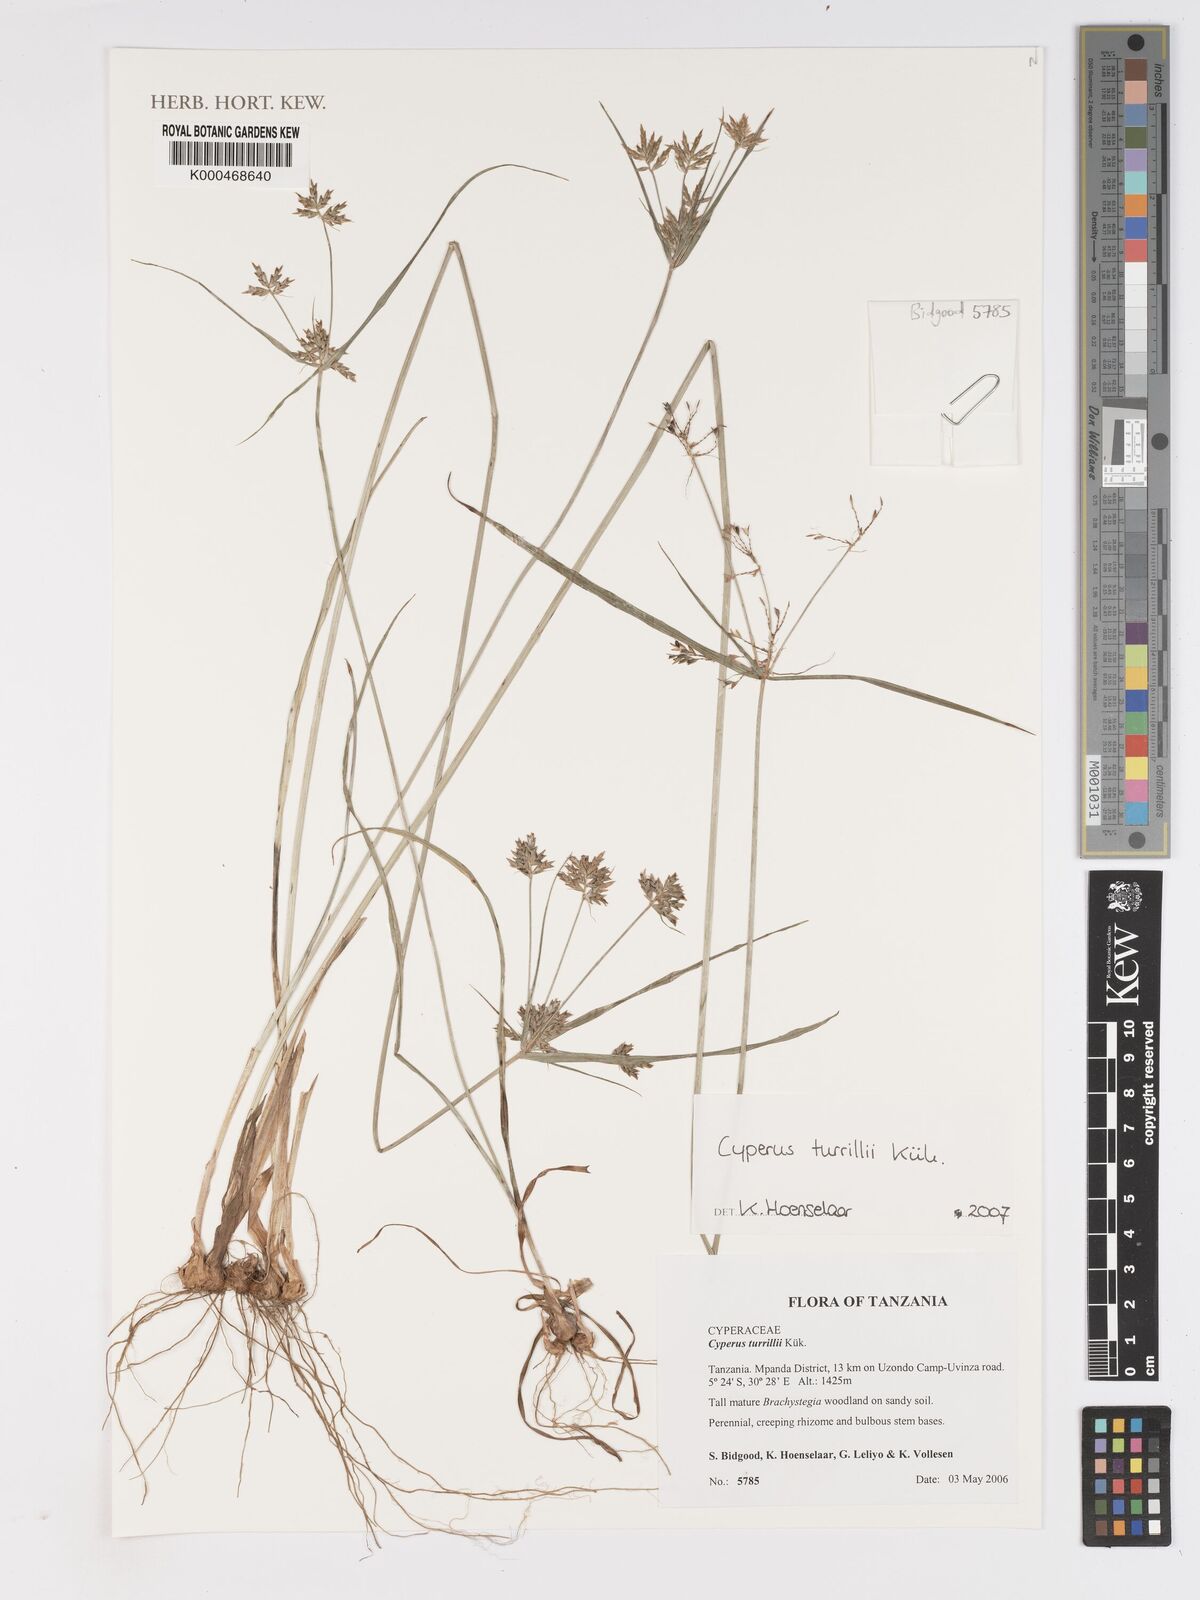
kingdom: Plantae
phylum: Tracheophyta
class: Liliopsida
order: Poales
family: Cyperaceae
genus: Cyperus
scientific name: Cyperus
